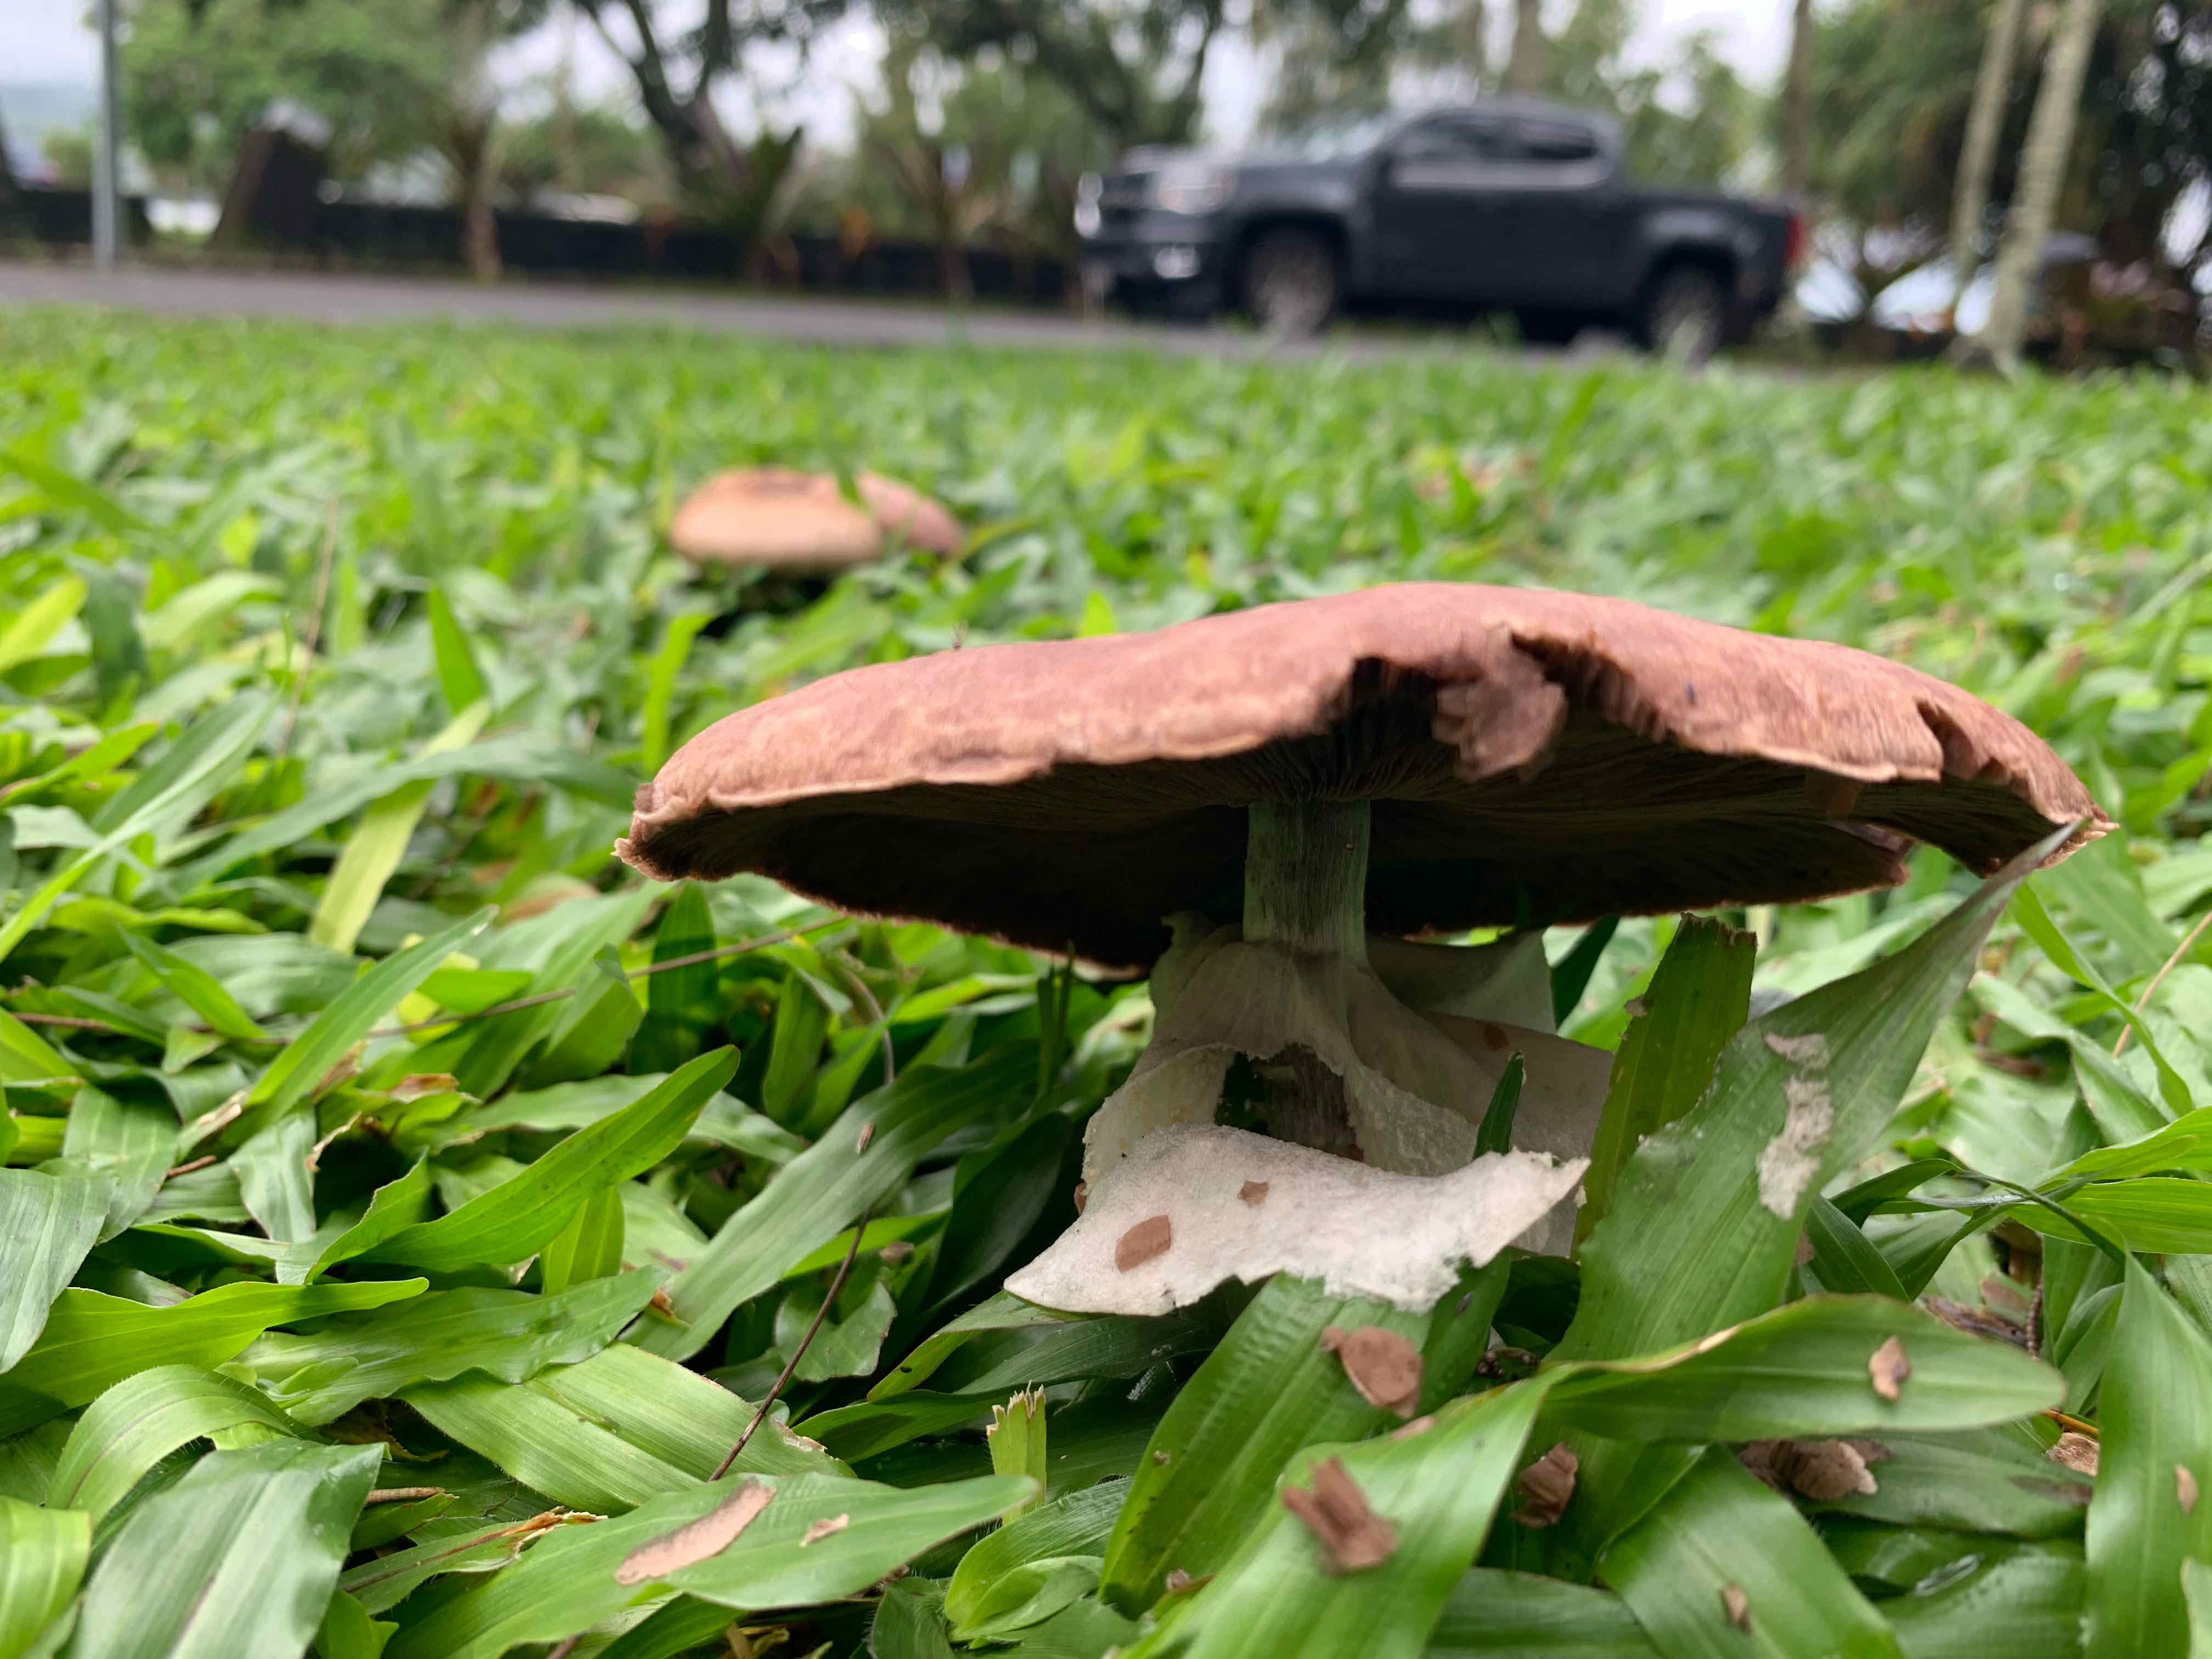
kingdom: Fungi
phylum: Basidiomycota
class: Agaricomycetes
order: Agaricales
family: Agaricaceae
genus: Agaricus
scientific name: Agaricus
